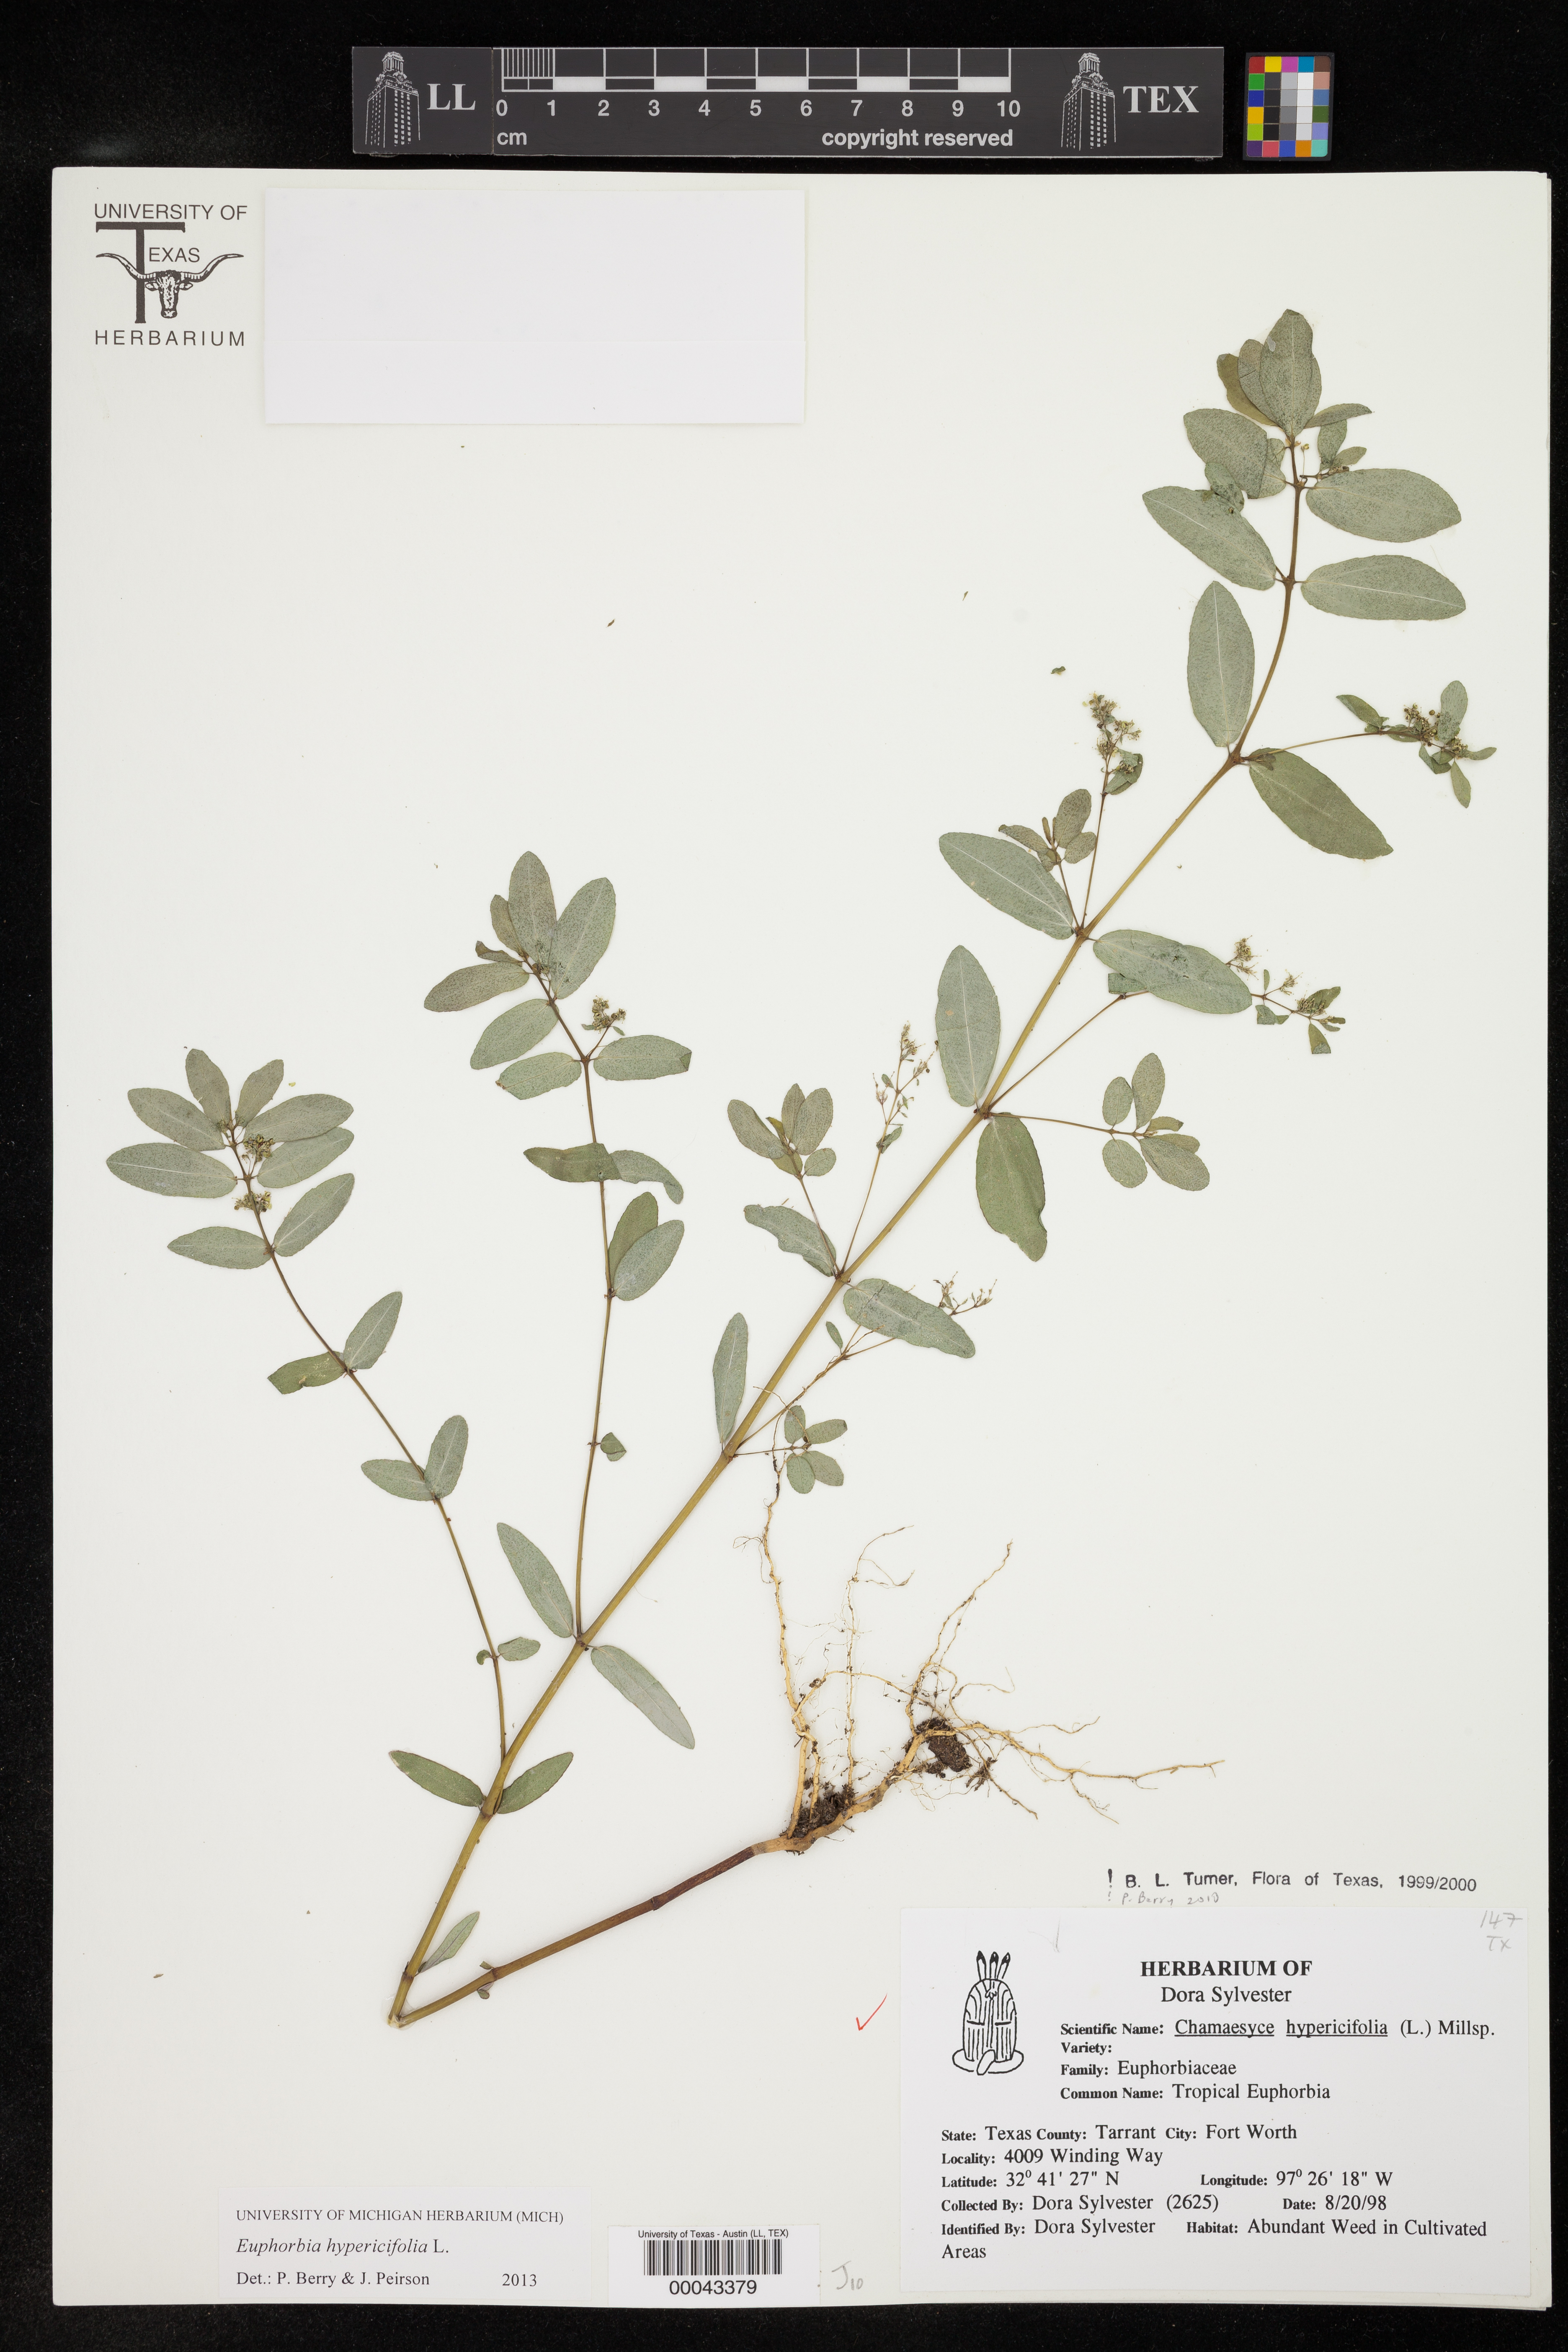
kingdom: Plantae
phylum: Tracheophyta
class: Magnoliopsida
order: Malpighiales
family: Euphorbiaceae
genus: Euphorbia
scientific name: Euphorbia hypericifolia
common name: Graceful sandmat
